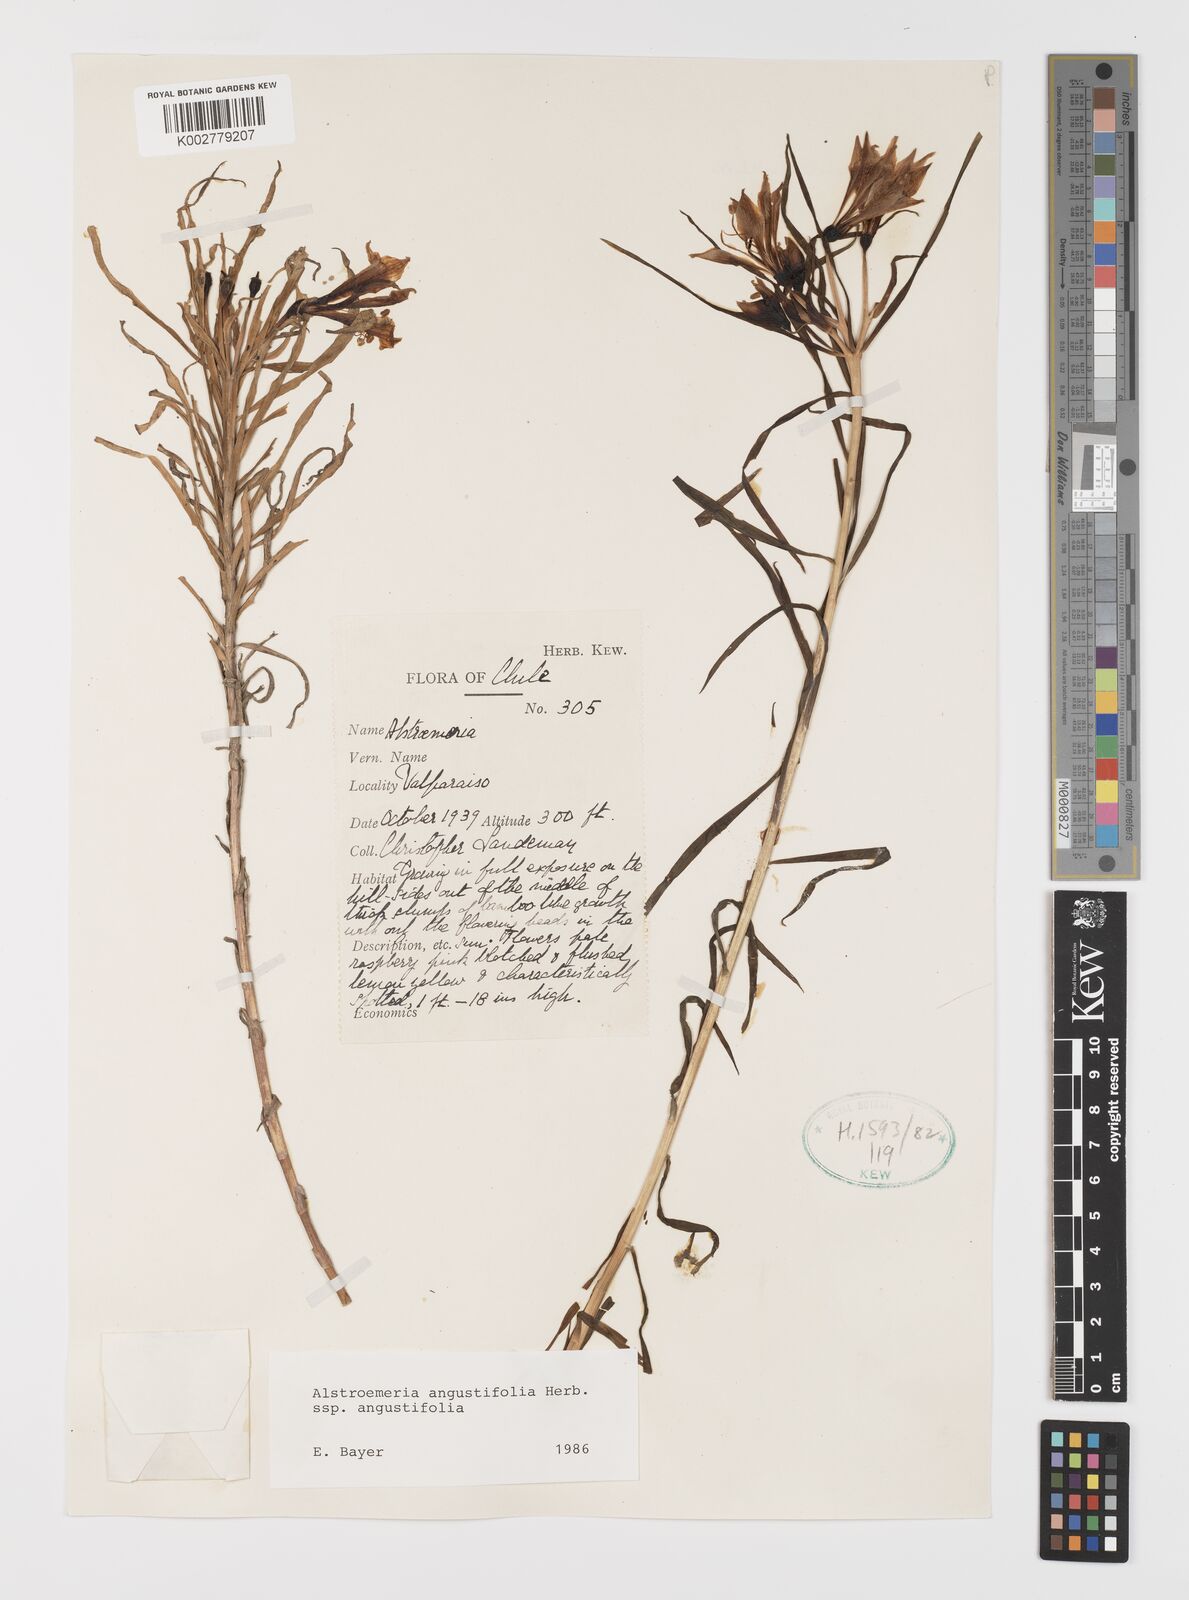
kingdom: Plantae
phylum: Tracheophyta
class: Liliopsida
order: Liliales
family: Alstroemeriaceae
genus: Alstroemeria
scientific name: Alstroemeria angustifolia
